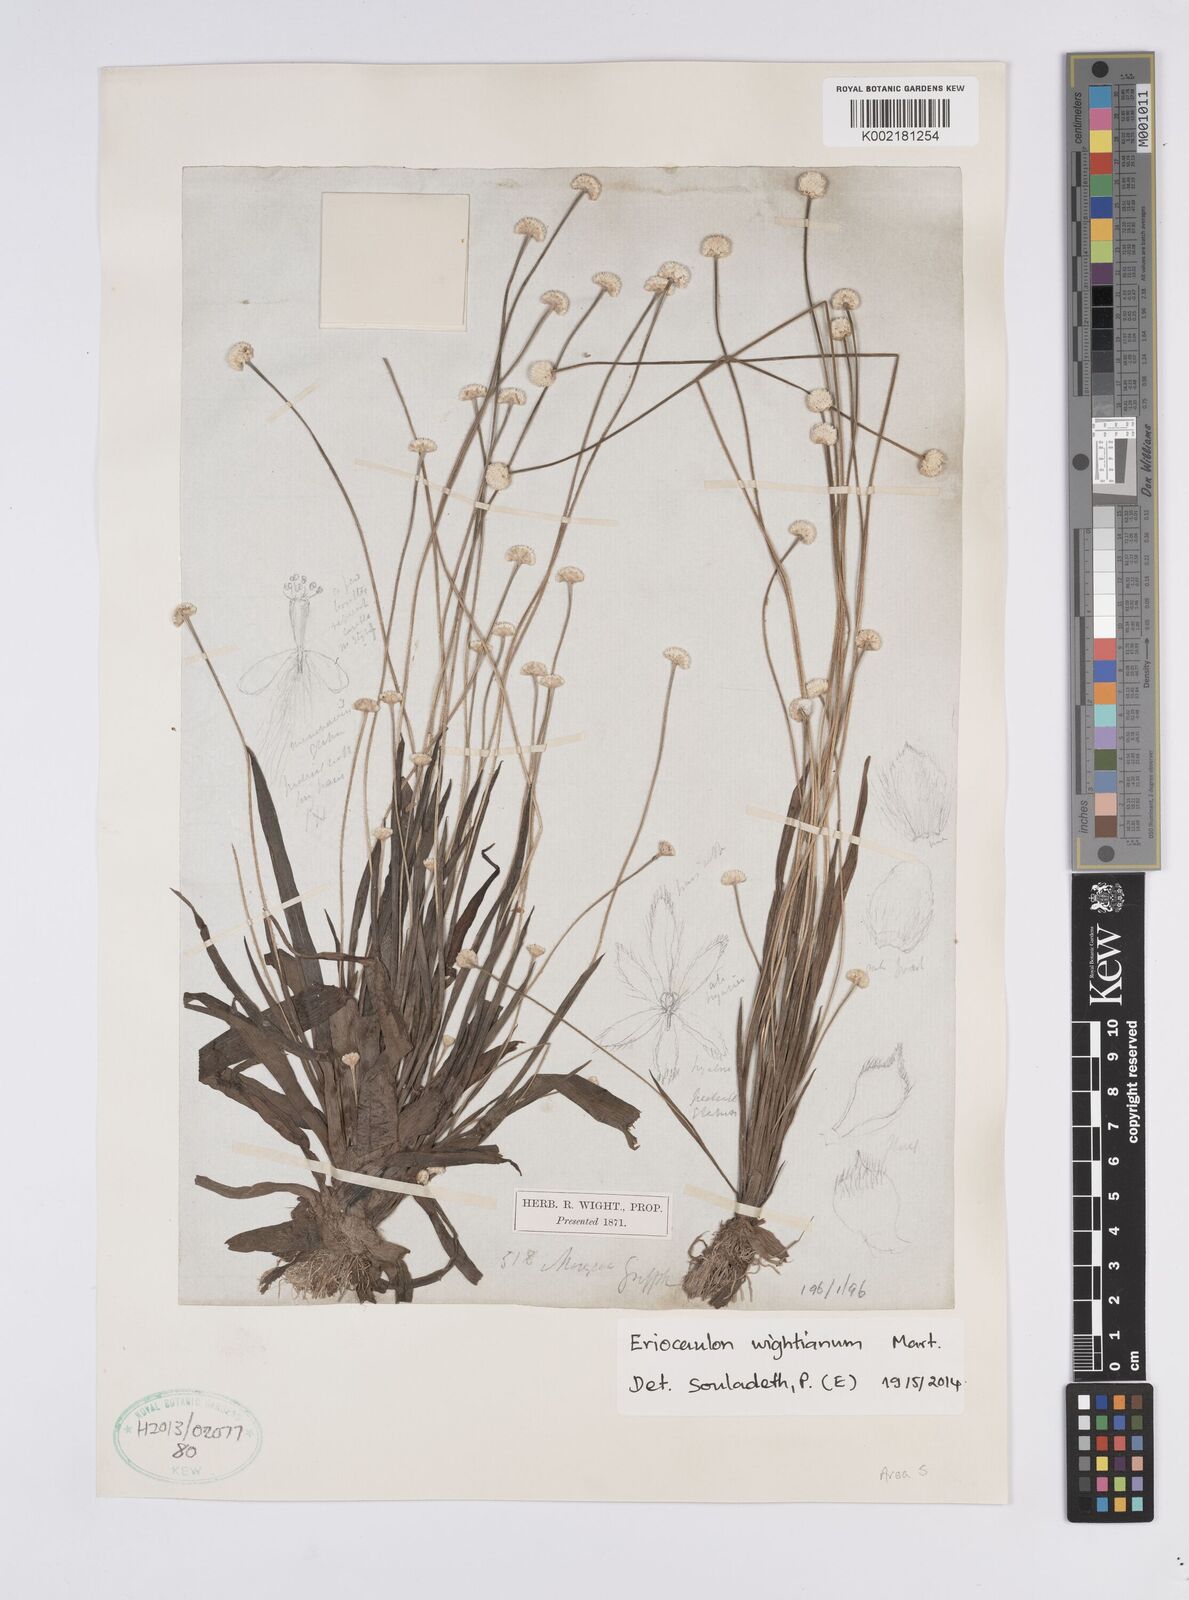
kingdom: Plantae
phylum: Tracheophyta
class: Liliopsida
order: Poales
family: Eriocaulaceae
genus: Eriocaulon
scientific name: Eriocaulon wightianum
